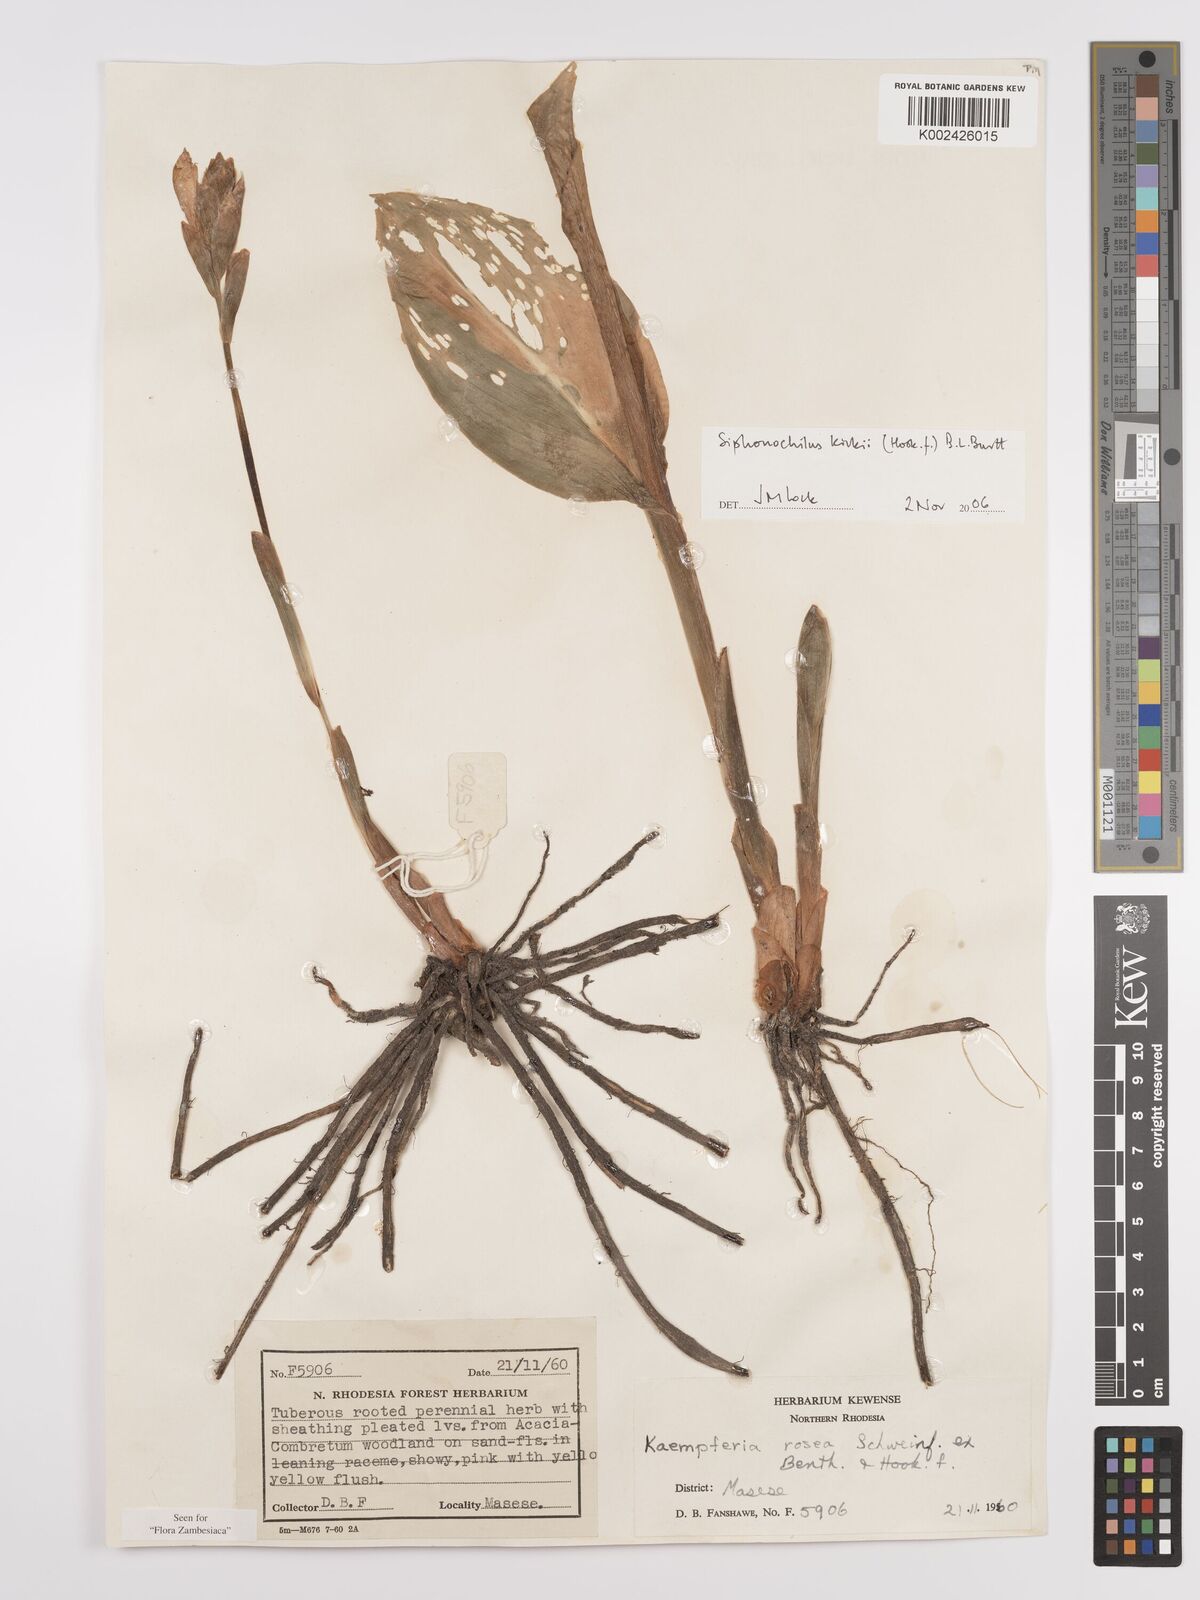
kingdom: Plantae
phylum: Tracheophyta
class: Liliopsida
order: Zingiberales
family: Zingiberaceae
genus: Siphonochilus
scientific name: Siphonochilus kirkii
